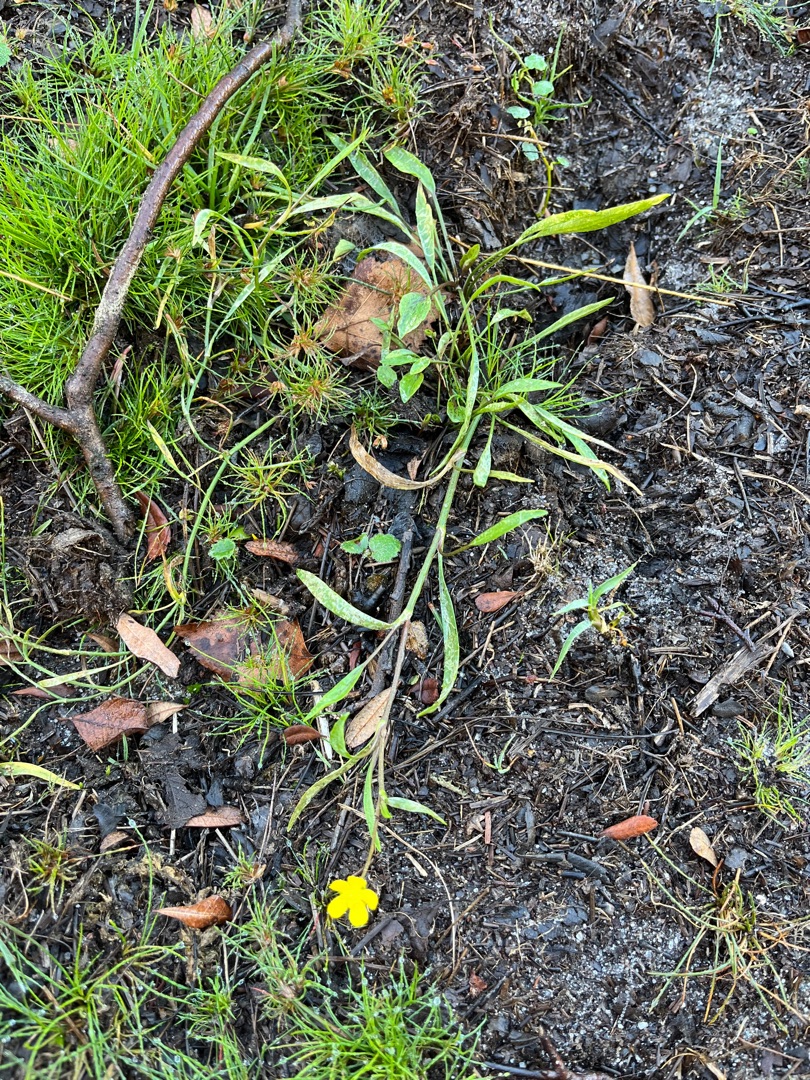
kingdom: Plantae
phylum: Tracheophyta
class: Magnoliopsida
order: Ranunculales
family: Ranunculaceae
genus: Ranunculus
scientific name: Ranunculus flammula
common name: Kær-ranunkel
